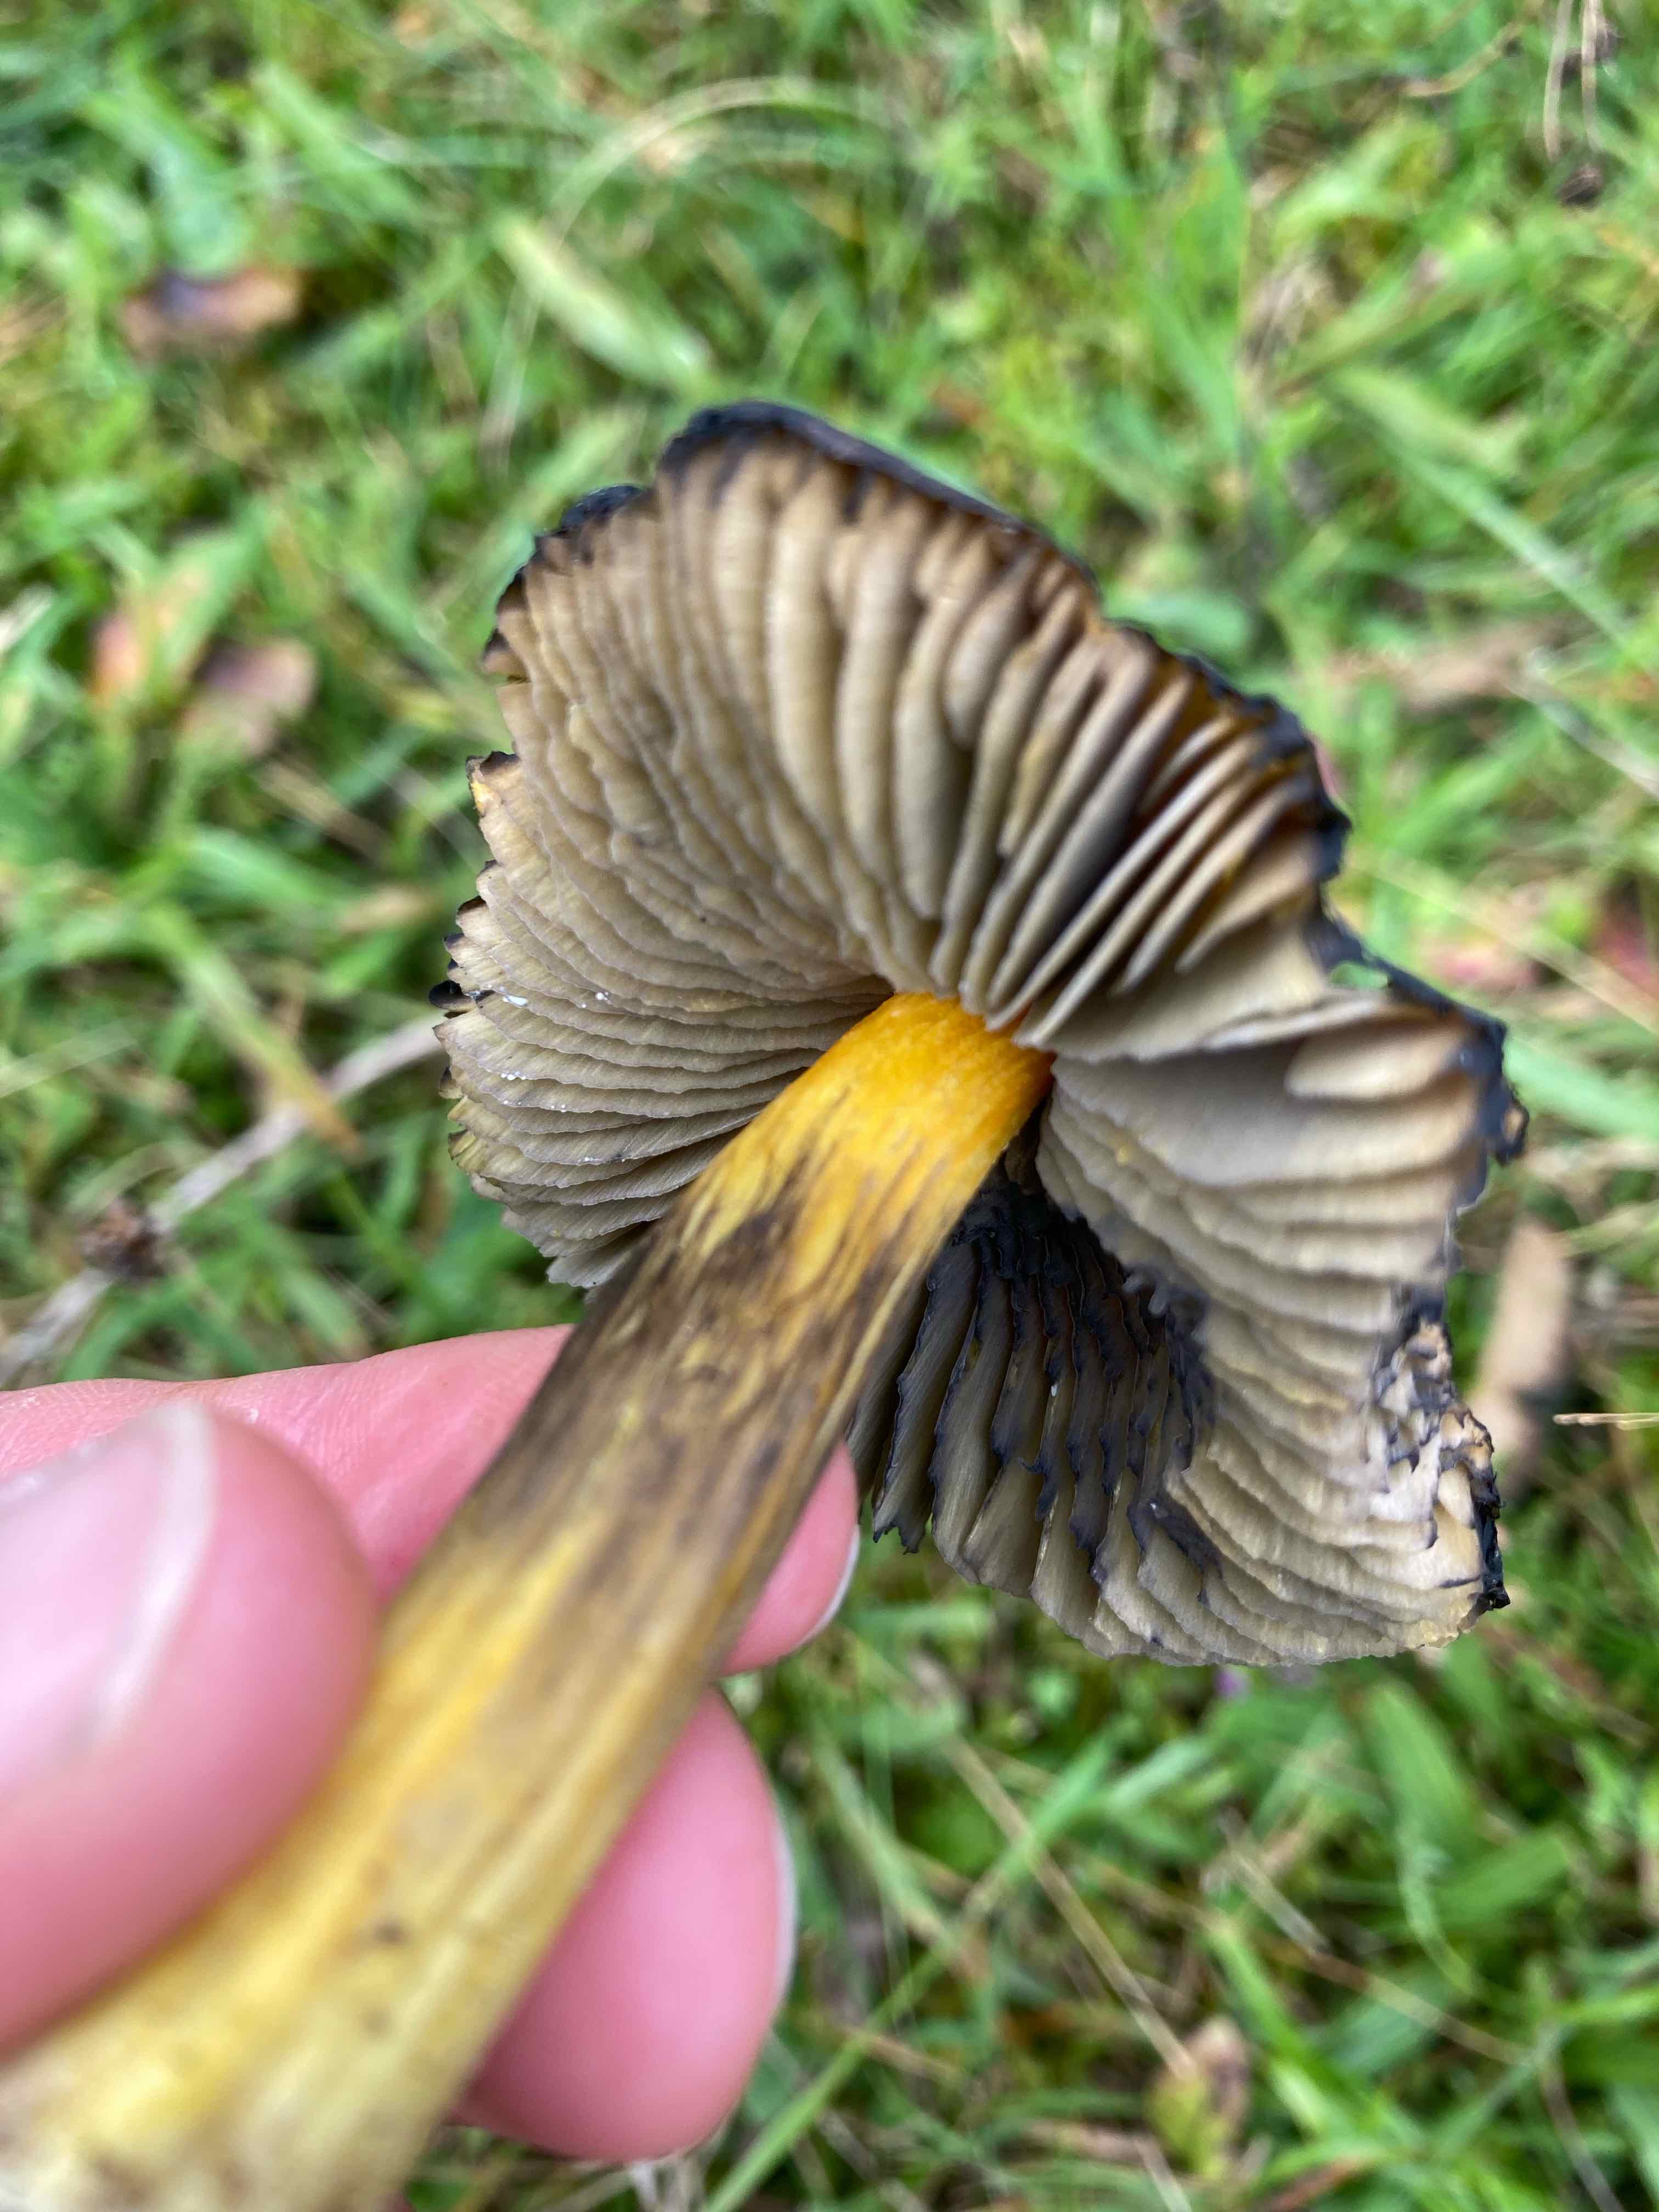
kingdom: Fungi
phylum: Basidiomycota
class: Agaricomycetes
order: Agaricales
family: Hygrophoraceae
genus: Hygrocybe
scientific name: Hygrocybe conica
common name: kegle-vokshat
